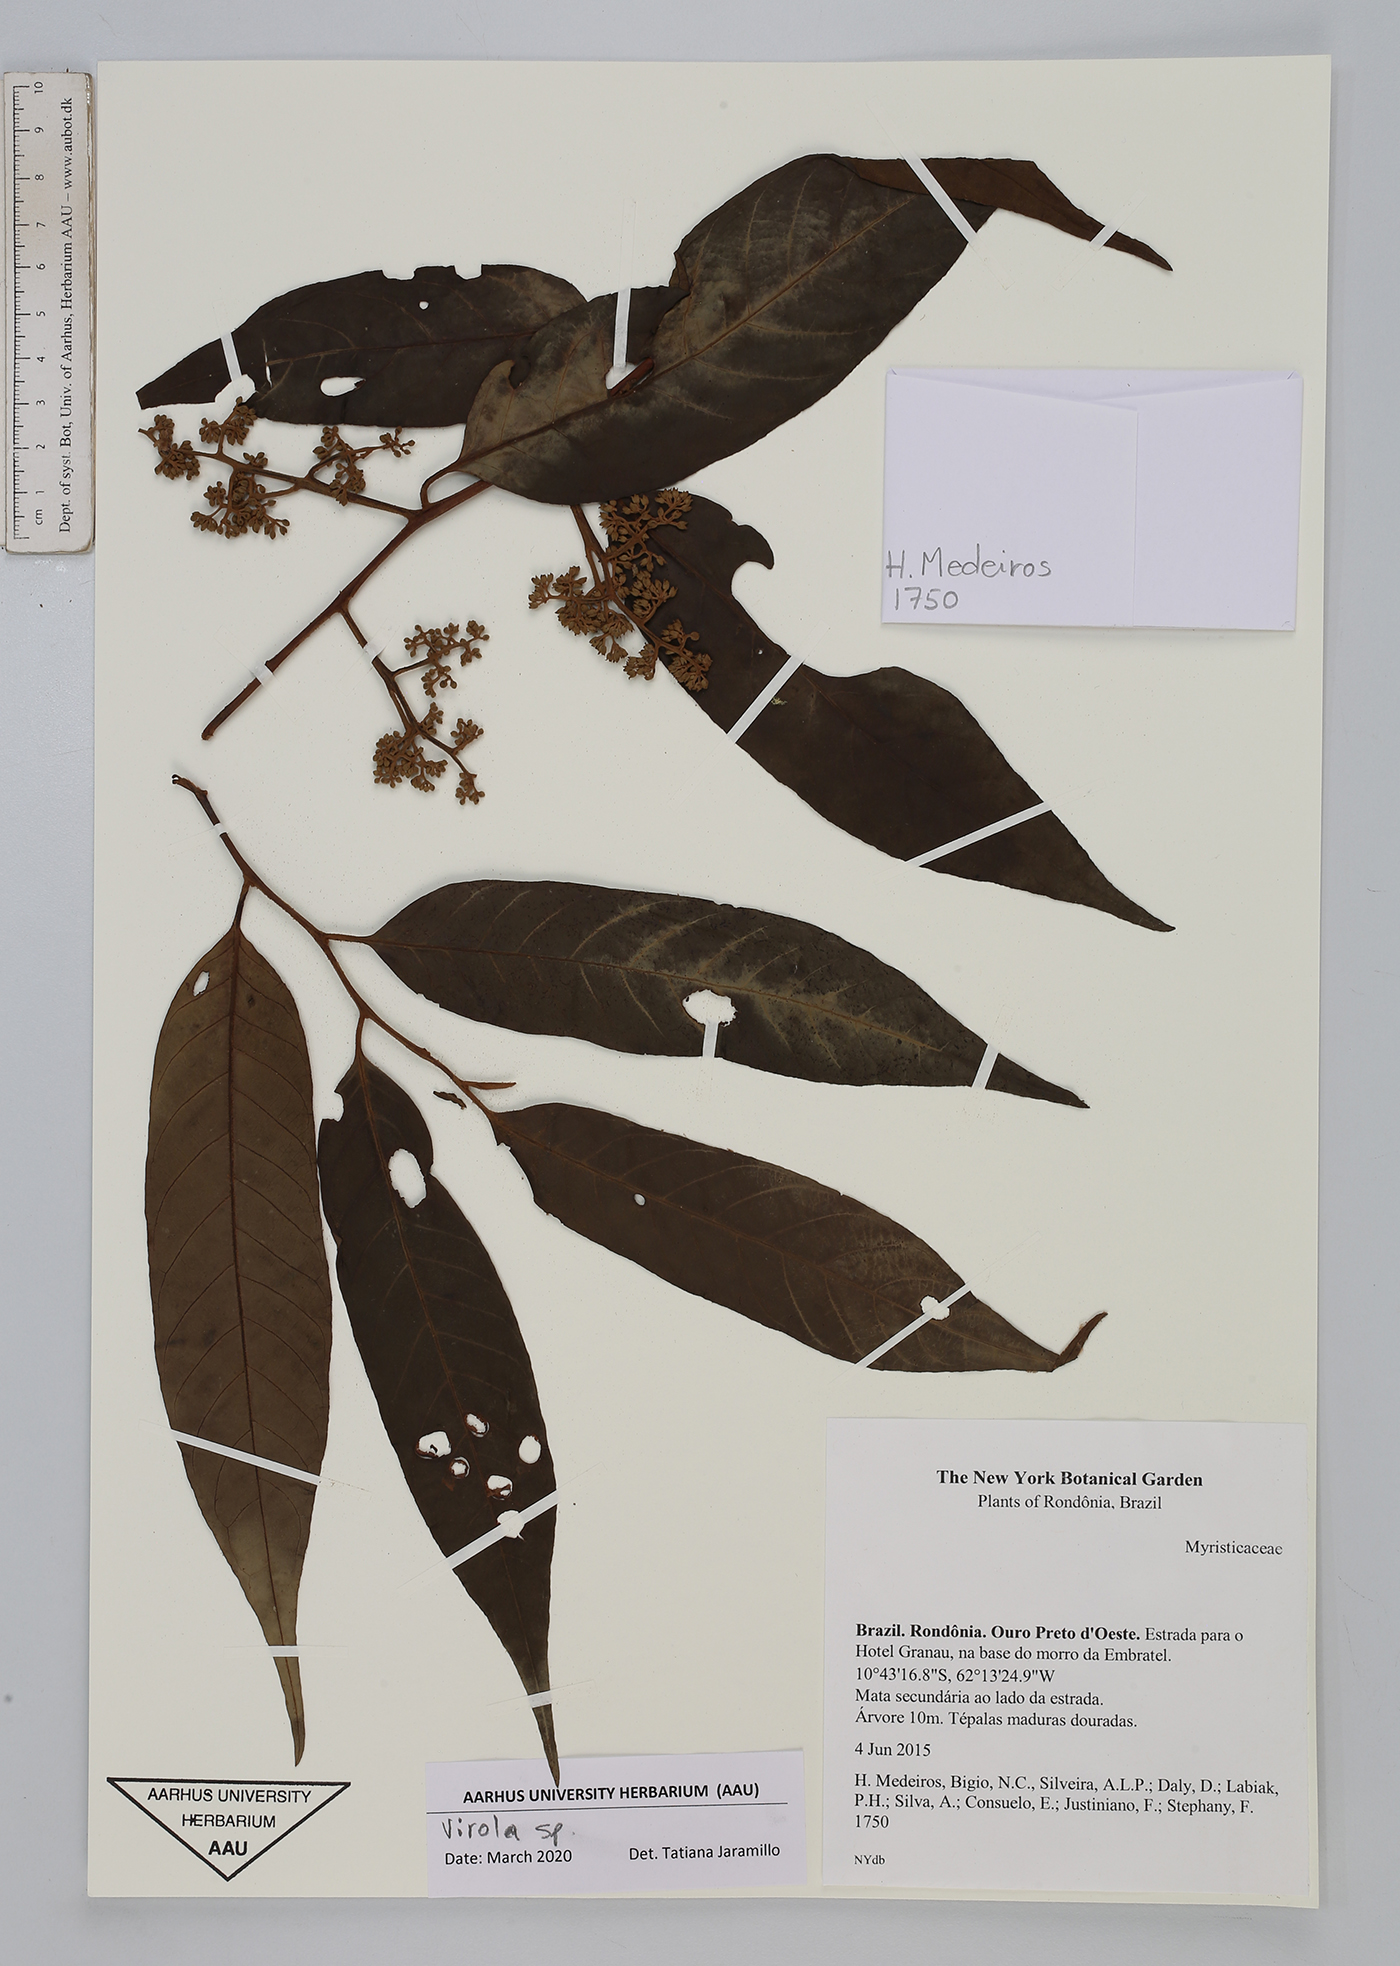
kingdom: Plantae
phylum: Tracheophyta
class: Magnoliopsida
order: Magnoliales
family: Myristicaceae
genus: Virola
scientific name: Virola
